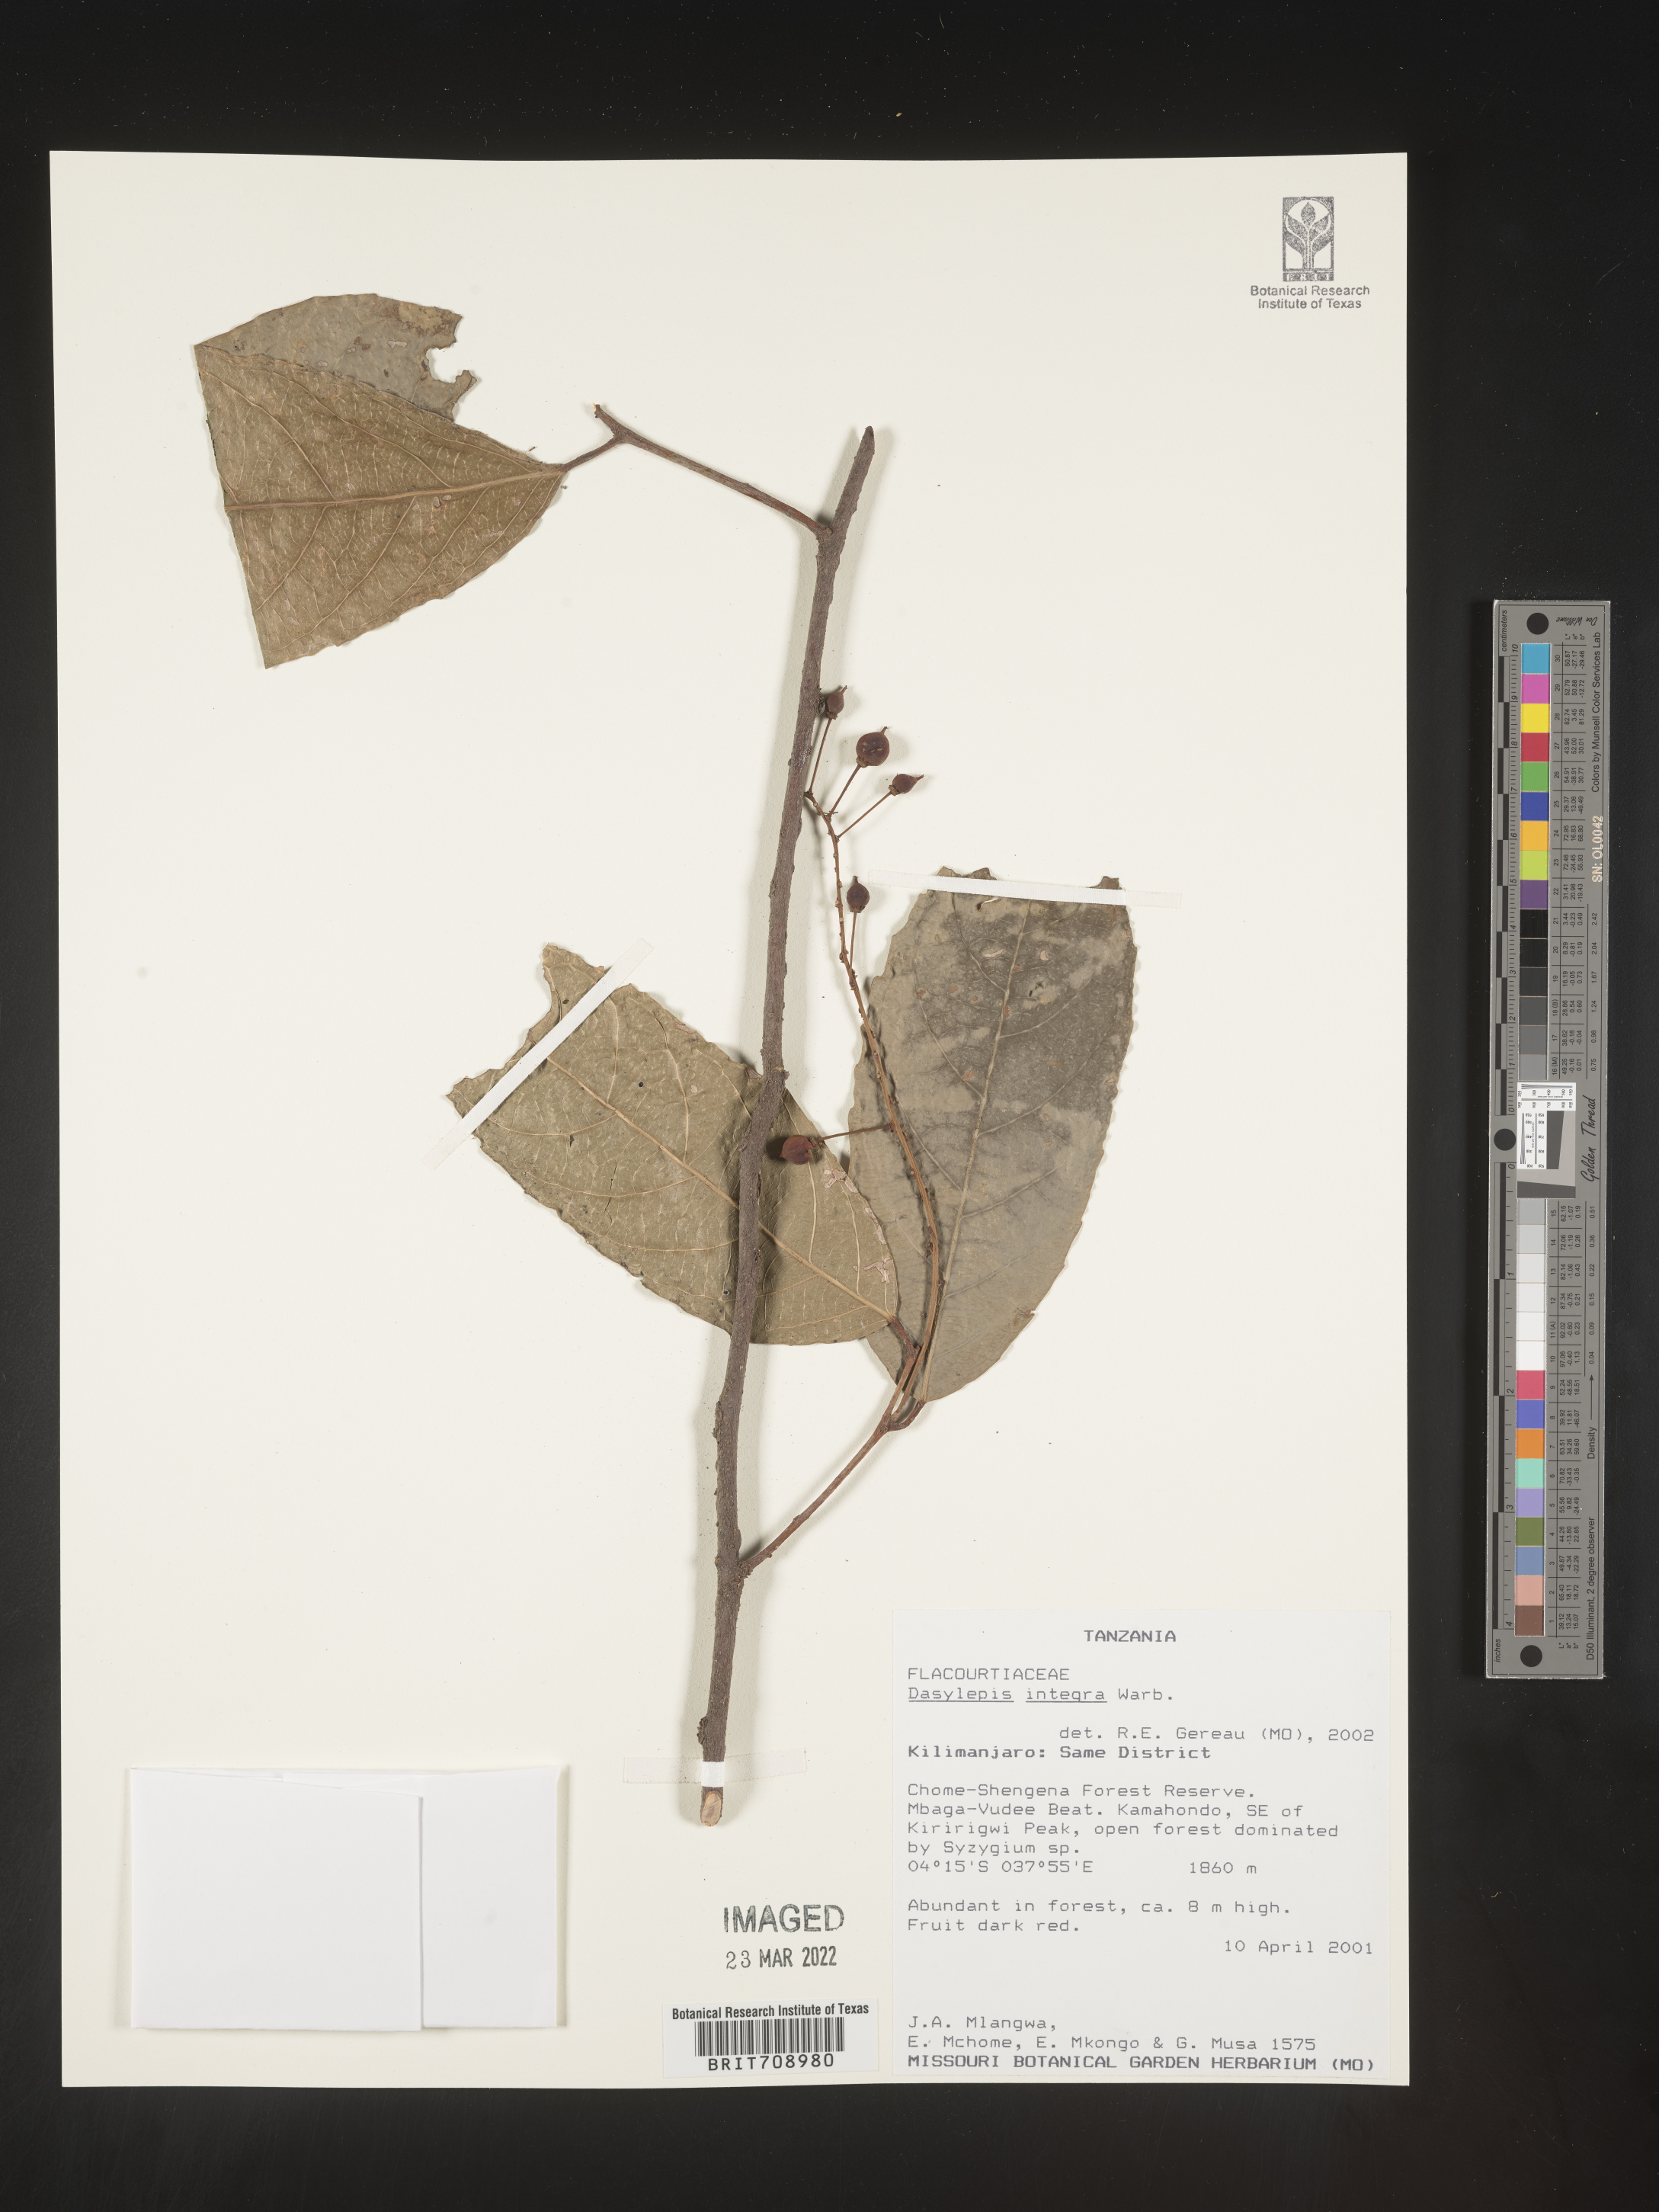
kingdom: Plantae
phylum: Tracheophyta
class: Magnoliopsida
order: Malpighiales
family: Achariaceae
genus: Dasylepis
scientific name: Dasylepis
